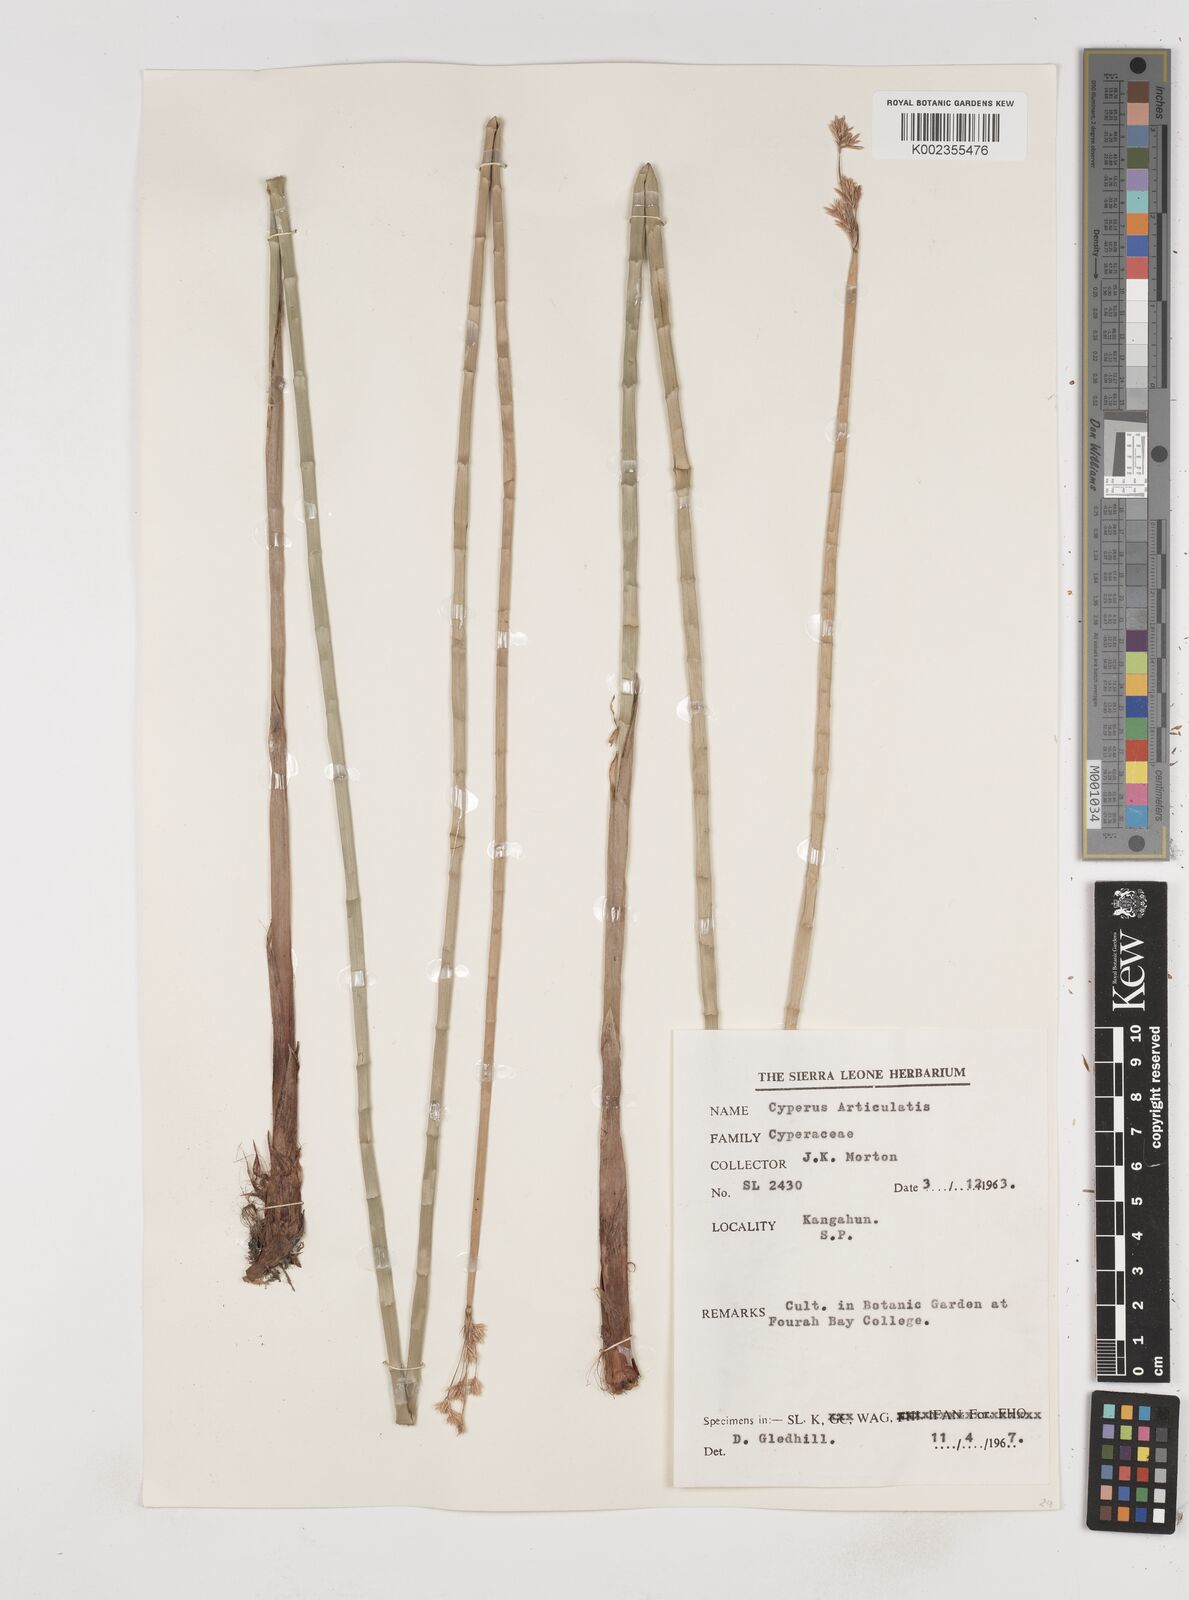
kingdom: Plantae
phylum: Tracheophyta
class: Liliopsida
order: Poales
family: Cyperaceae
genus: Cyperus
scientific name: Cyperus articulatus
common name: Jointed flatsedge
